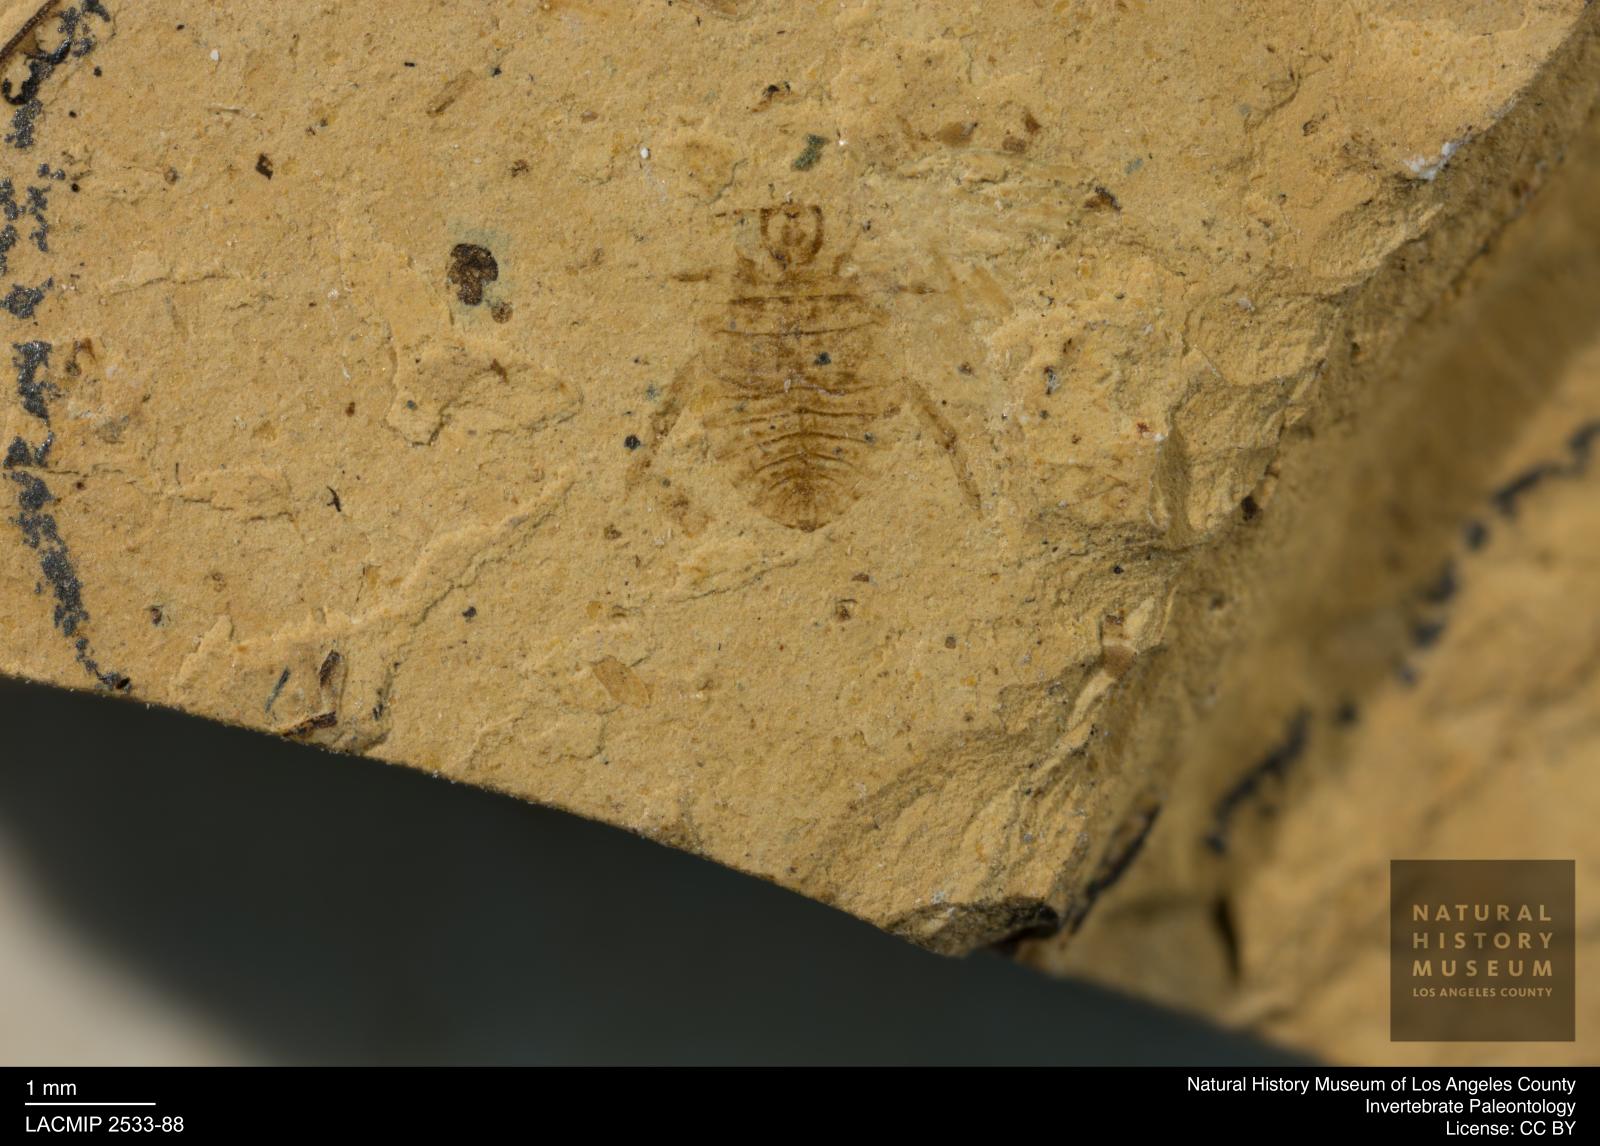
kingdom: Animalia
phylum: Arthropoda
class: Insecta
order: Hemiptera
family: Naucoridae
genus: Naucoris
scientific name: Naucoris rottensis
